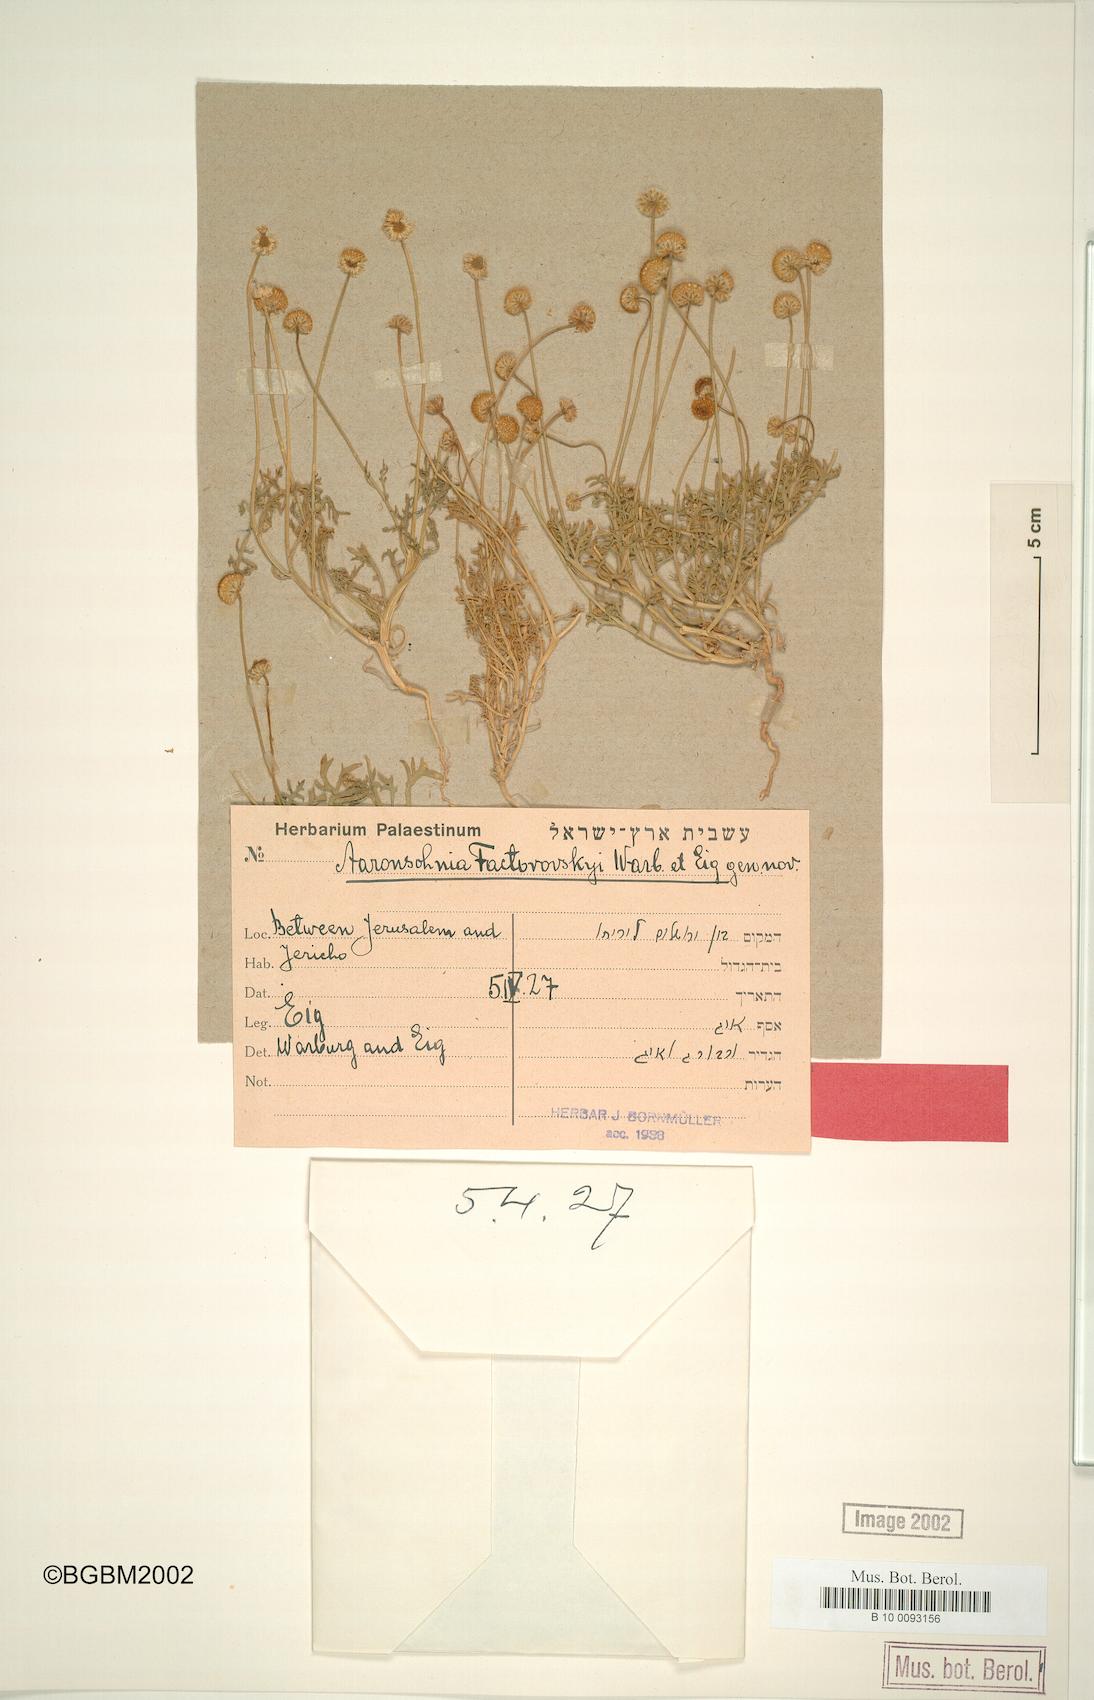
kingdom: Plantae
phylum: Tracheophyta
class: Magnoliopsida
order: Asterales
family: Asteraceae
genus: Otoglyphis
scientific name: Otoglyphis factorovskyi
